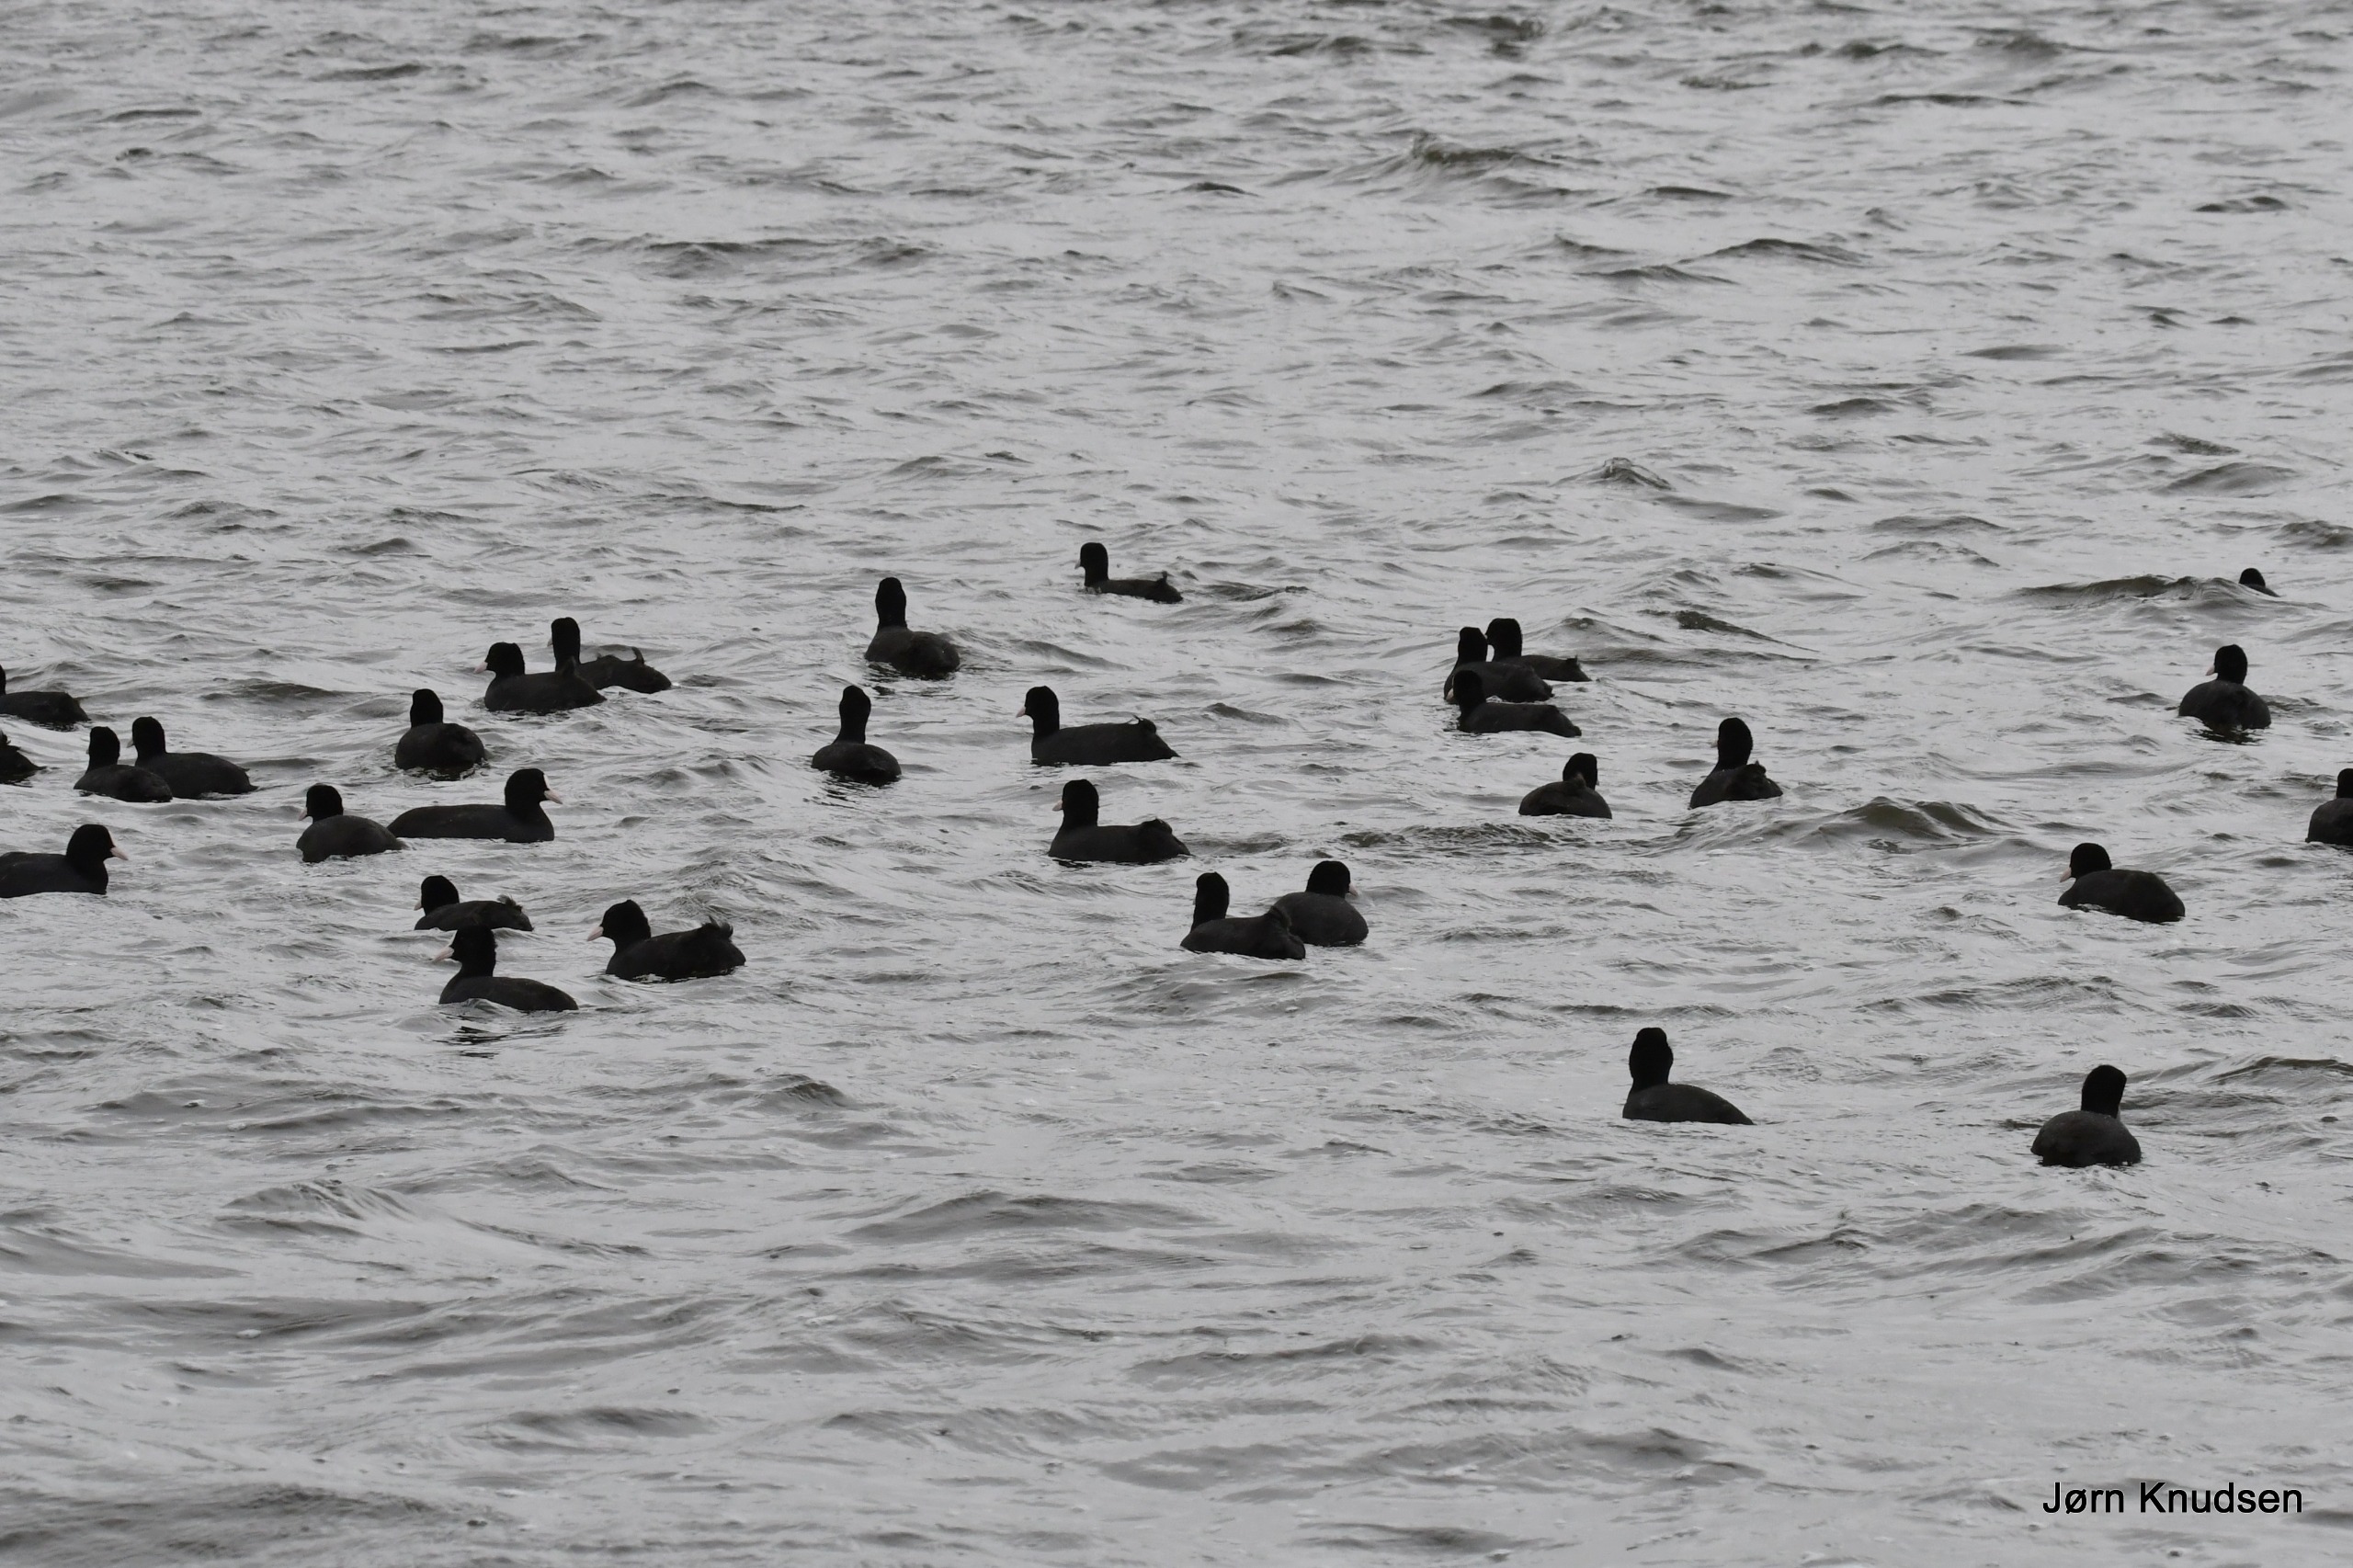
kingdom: Animalia
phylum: Chordata
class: Aves
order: Gruiformes
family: Rallidae
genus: Fulica
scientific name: Fulica atra
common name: Blishøne
